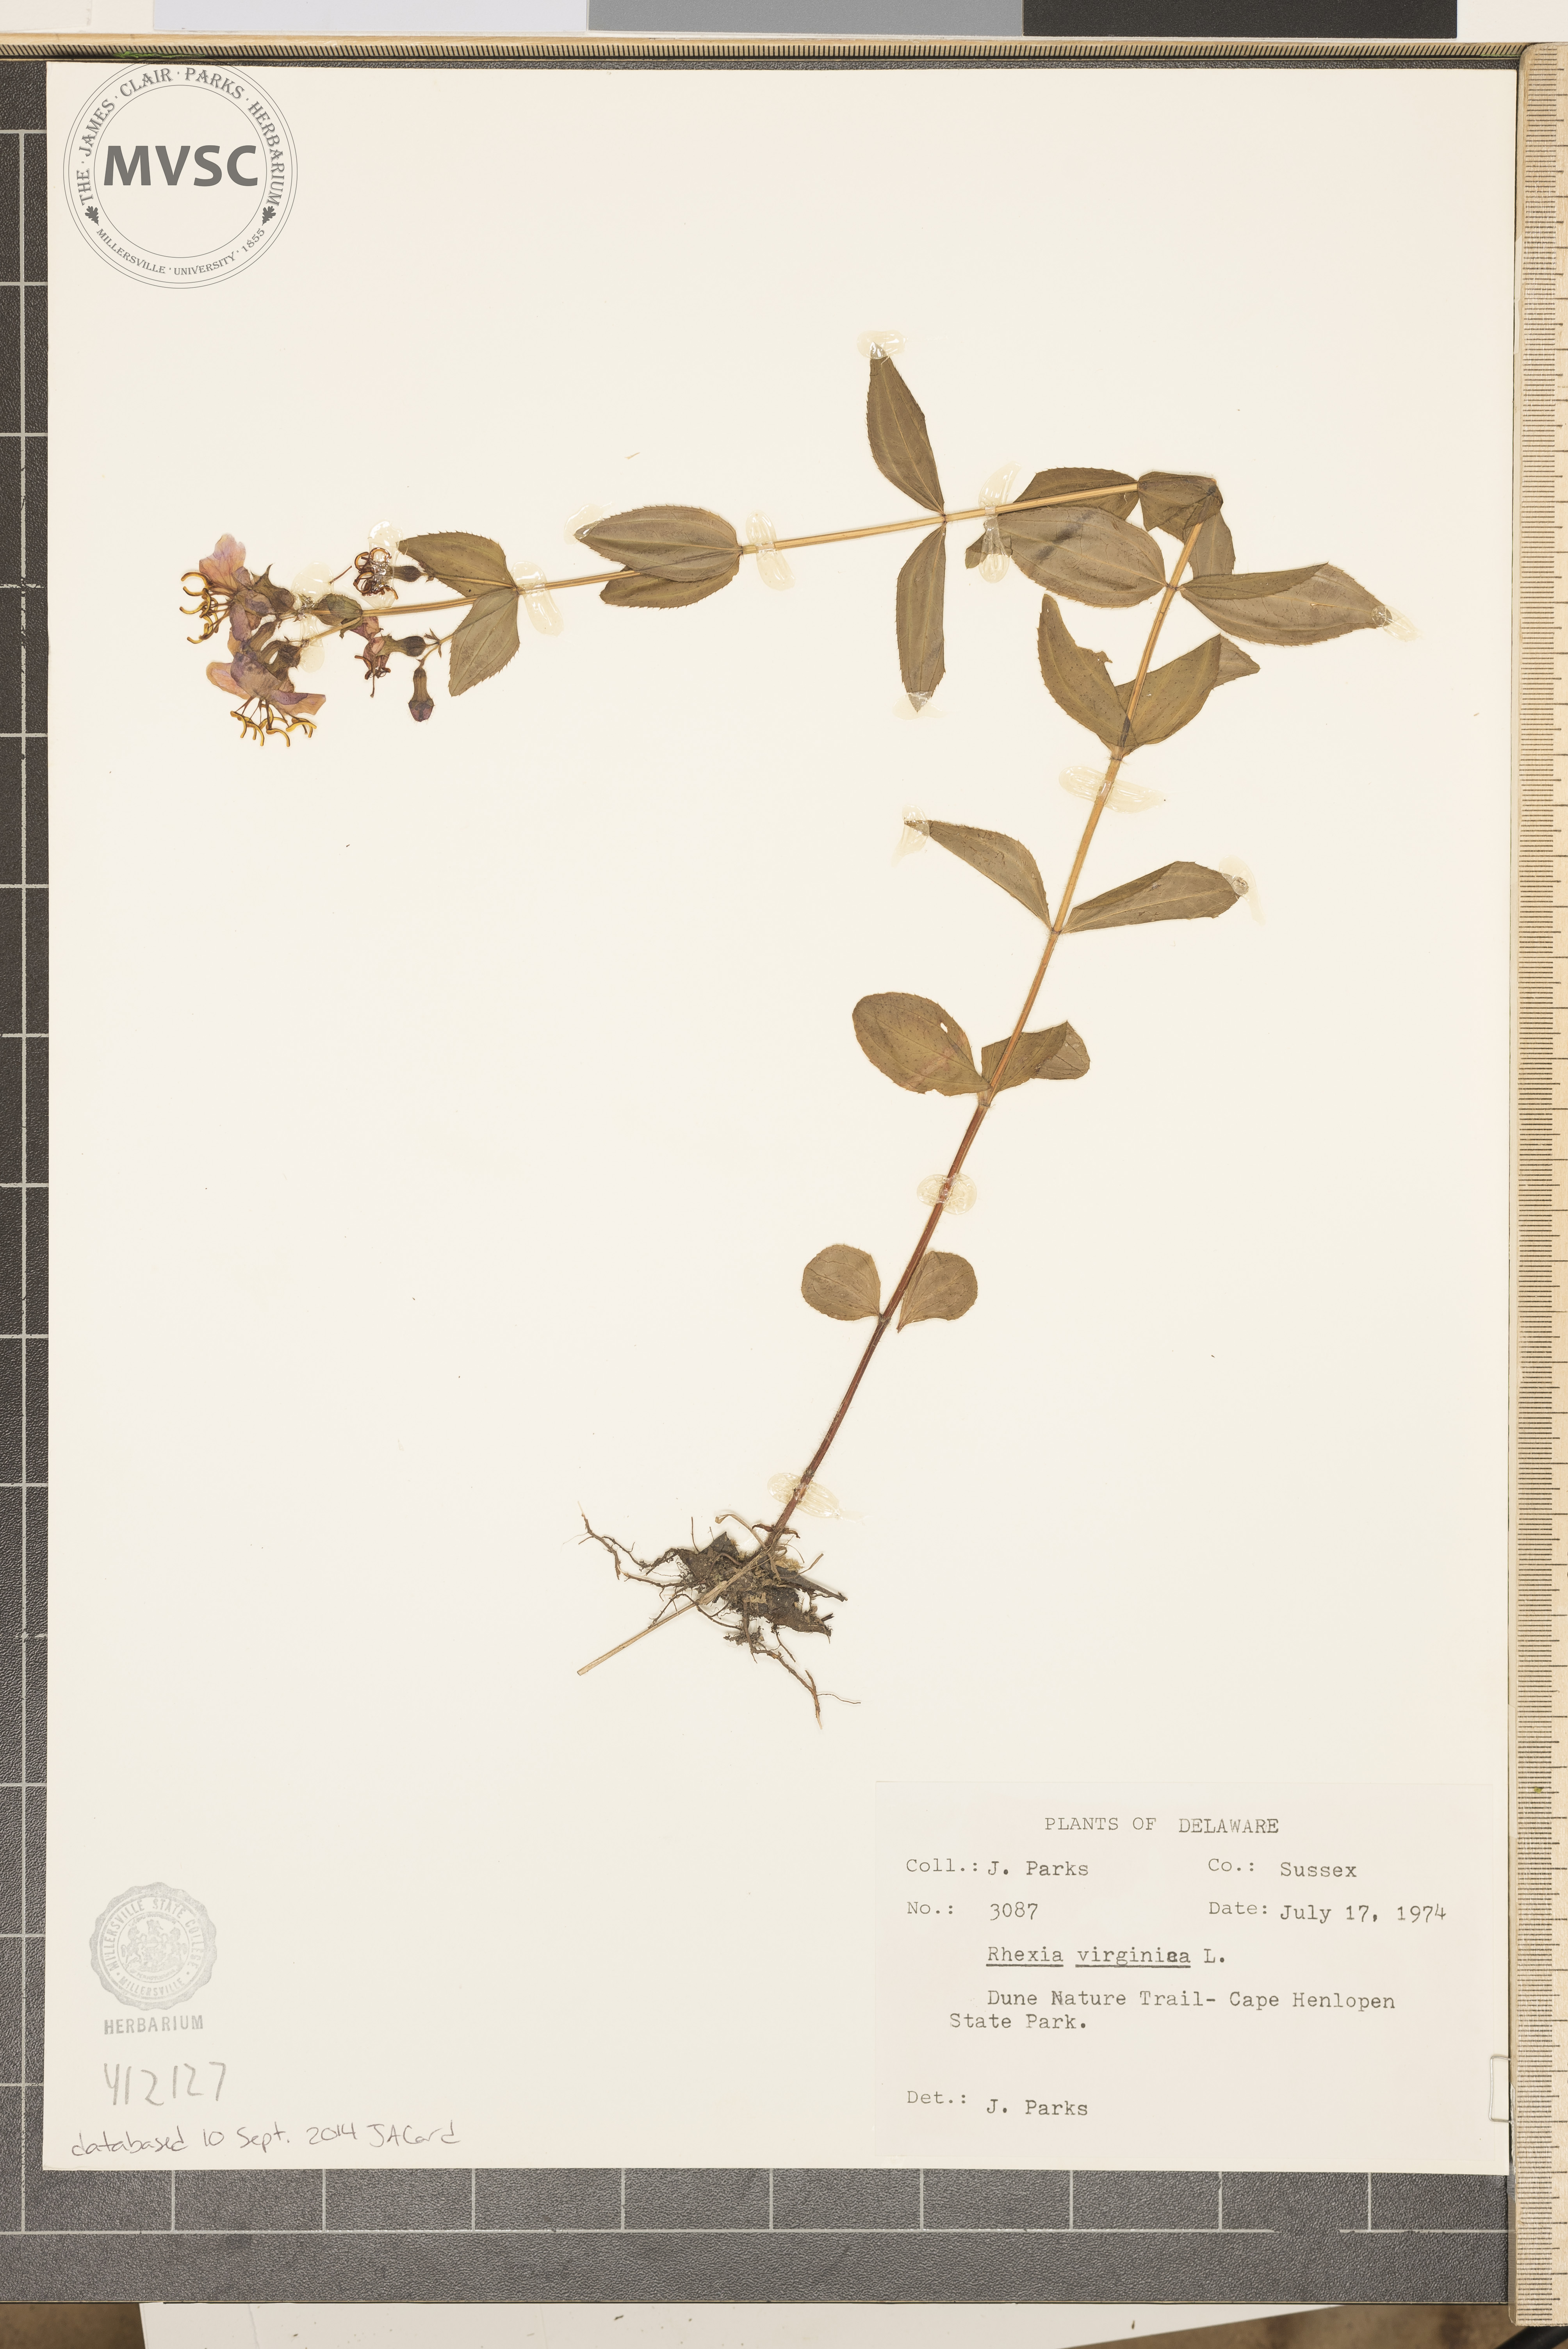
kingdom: Plantae
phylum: Tracheophyta
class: Magnoliopsida
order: Myrtales
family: Melastomataceae
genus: Rhexia
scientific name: Rhexia virginica
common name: Common meadow beauty
